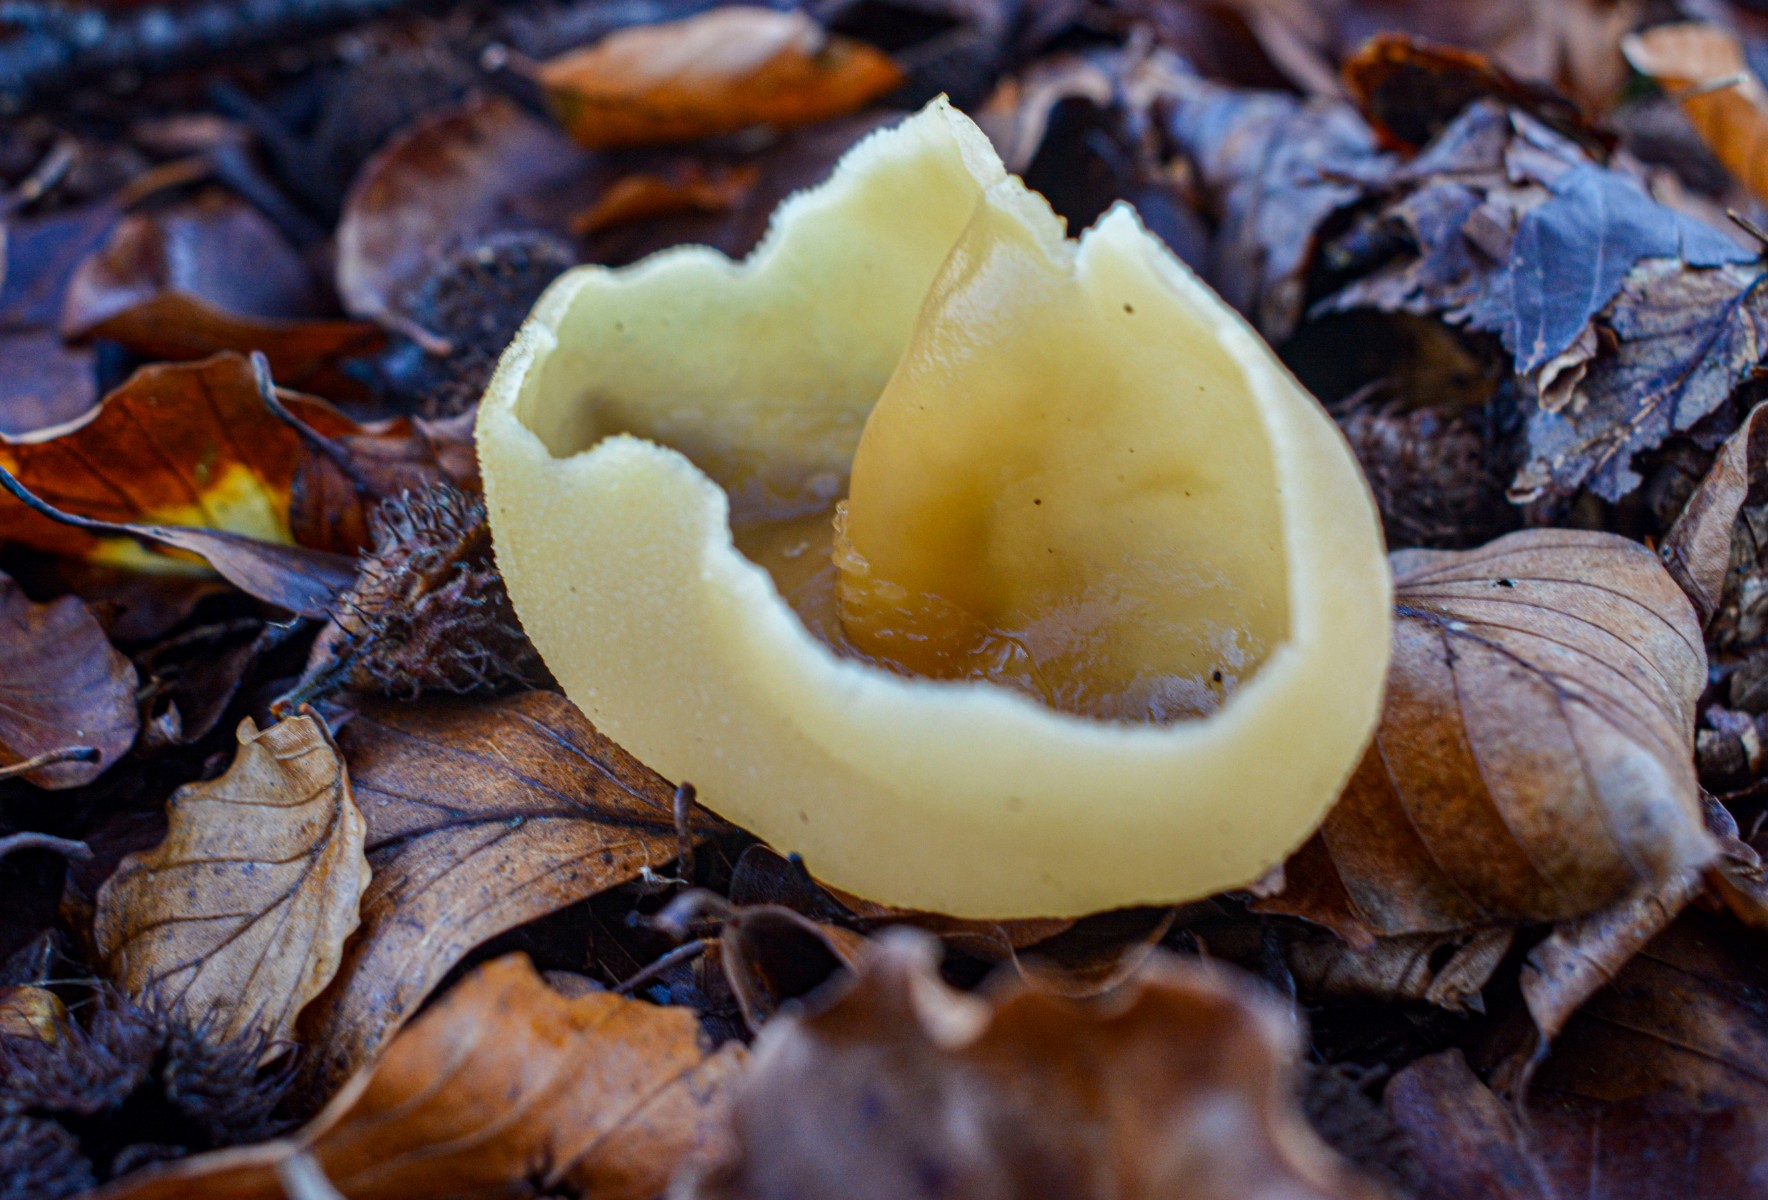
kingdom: Fungi
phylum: Ascomycota
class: Pezizomycetes
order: Pezizales
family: Pezizaceae
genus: Peziza
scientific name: Peziza
